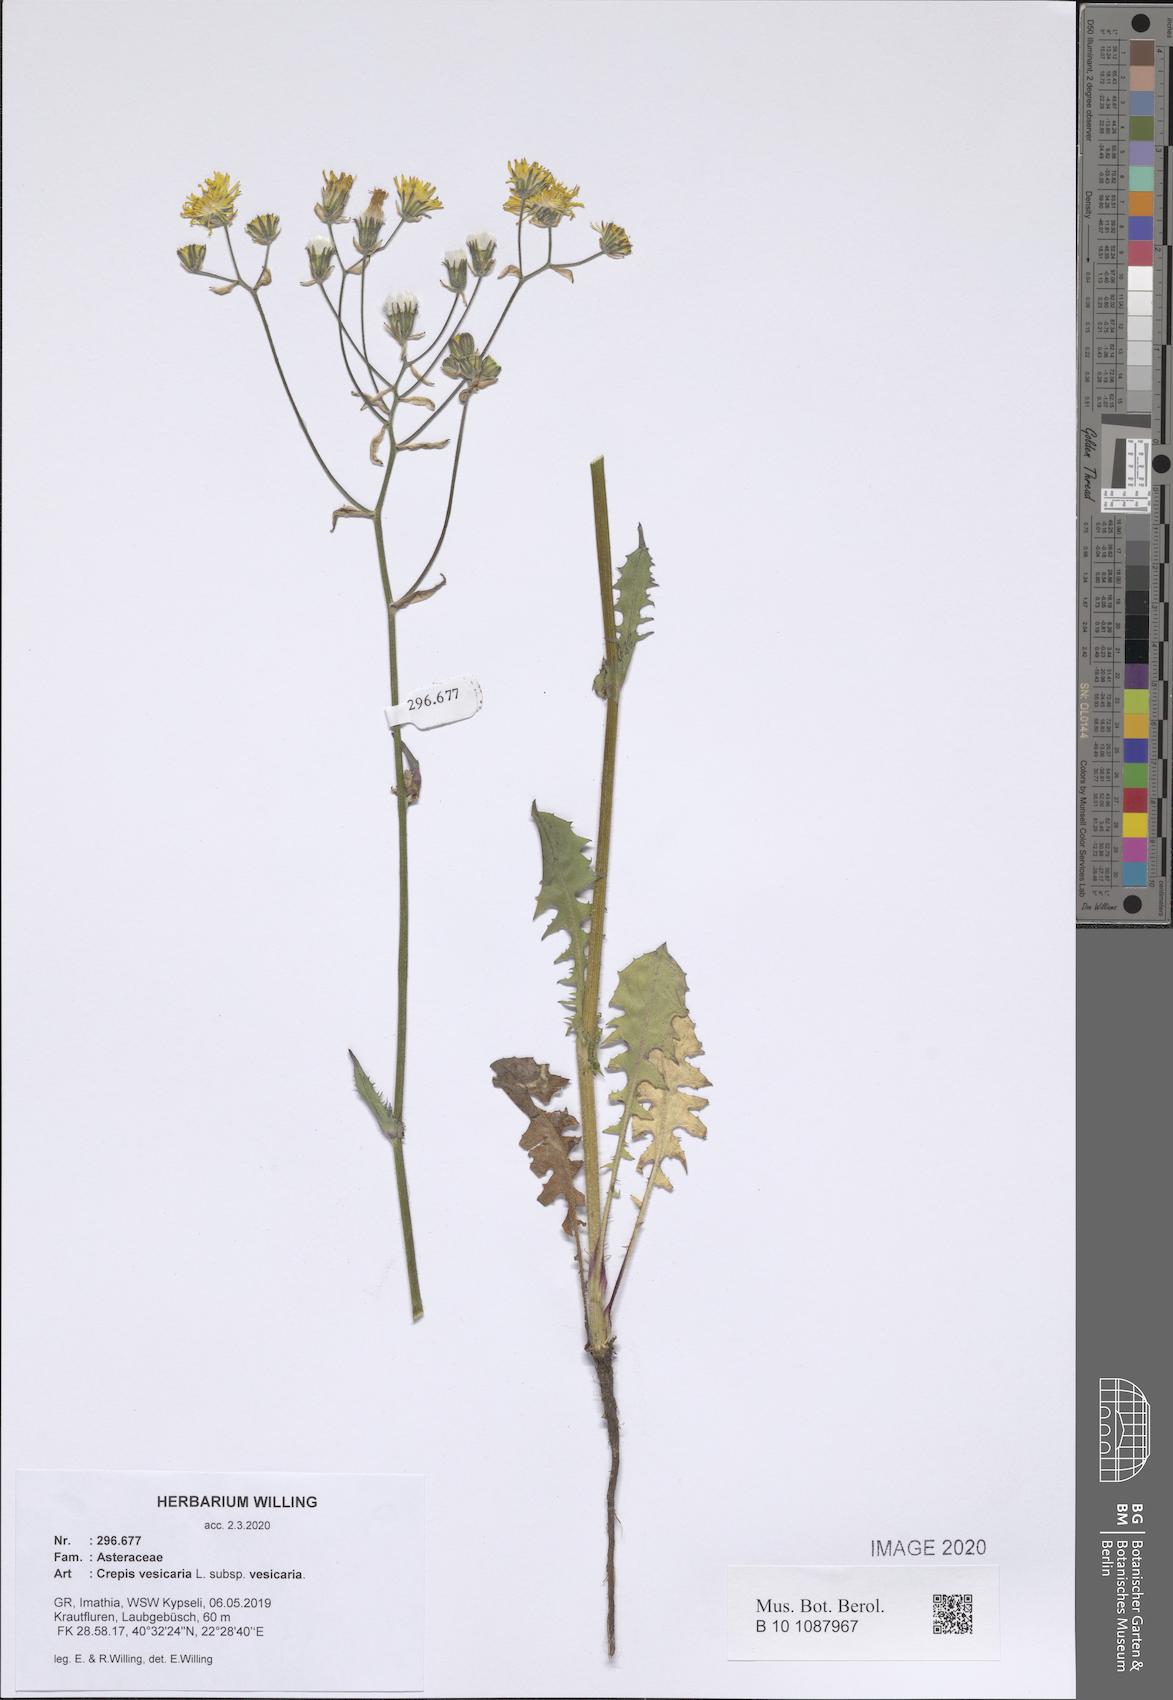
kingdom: Plantae
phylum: Tracheophyta
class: Magnoliopsida
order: Asterales
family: Asteraceae
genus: Crepis
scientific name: Crepis vesicaria
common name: Beaked hawksbeard
